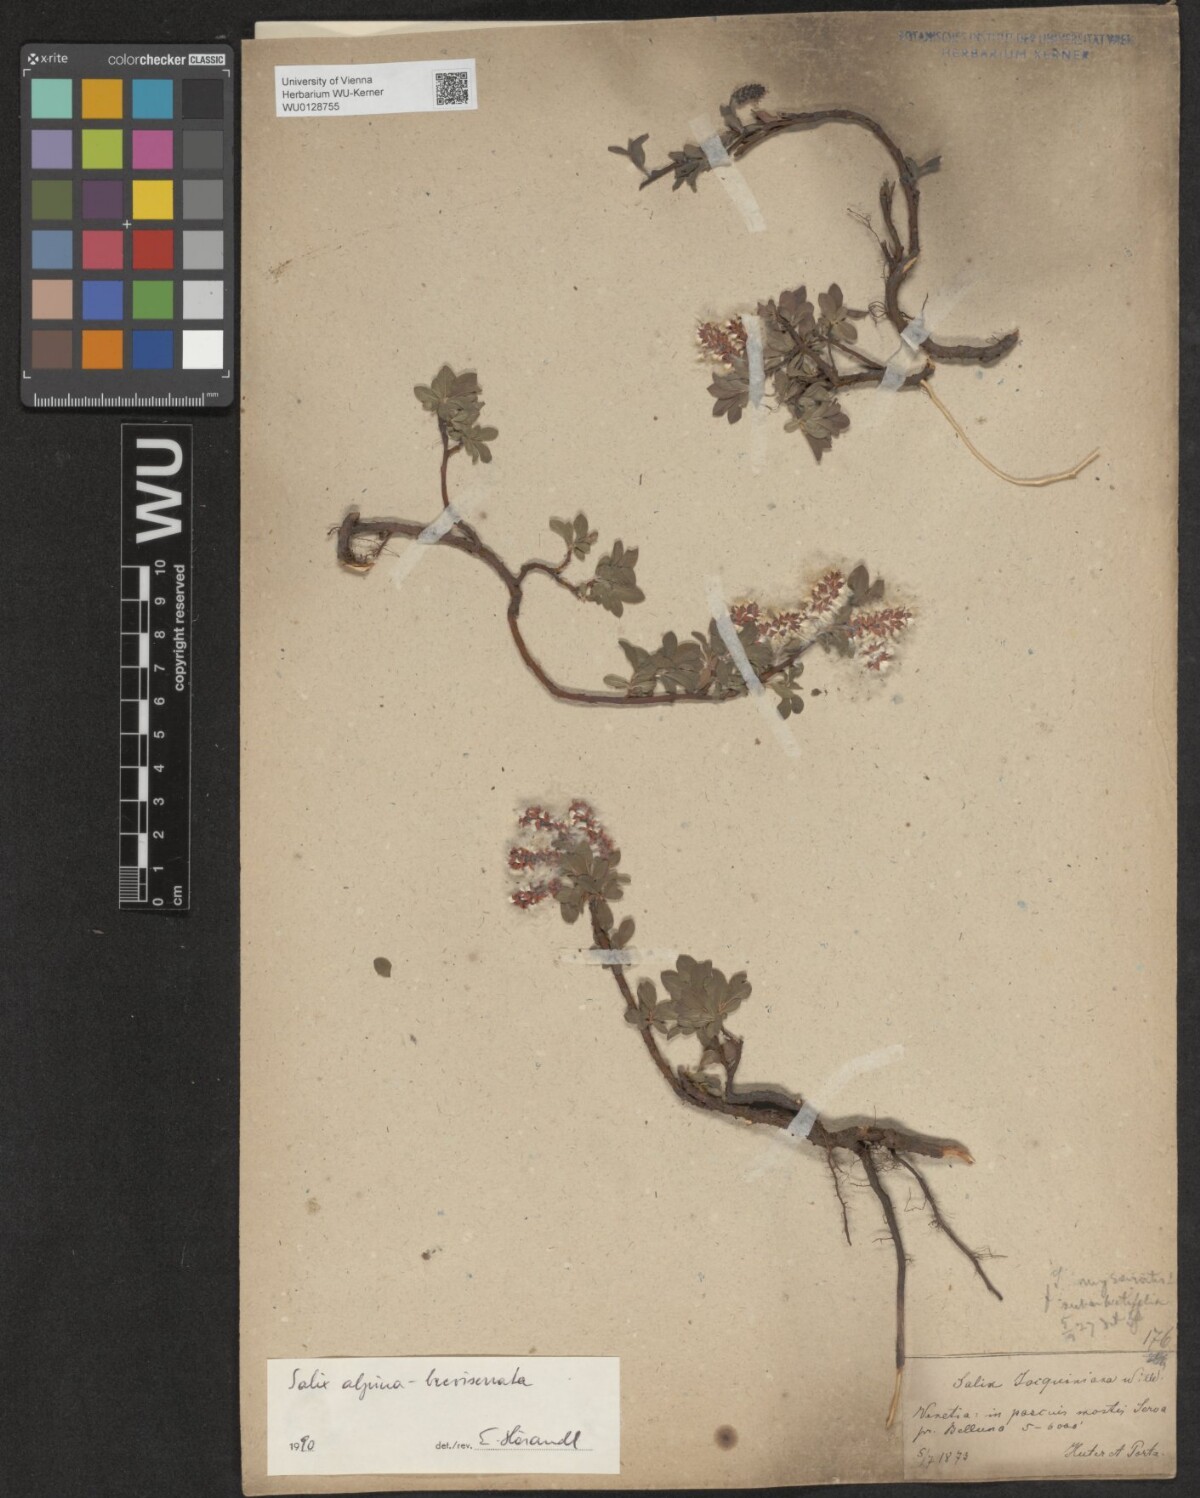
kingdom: Plantae
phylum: Tracheophyta
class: Magnoliopsida
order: Malpighiales
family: Salicaceae
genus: Salix
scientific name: Salix alpina
